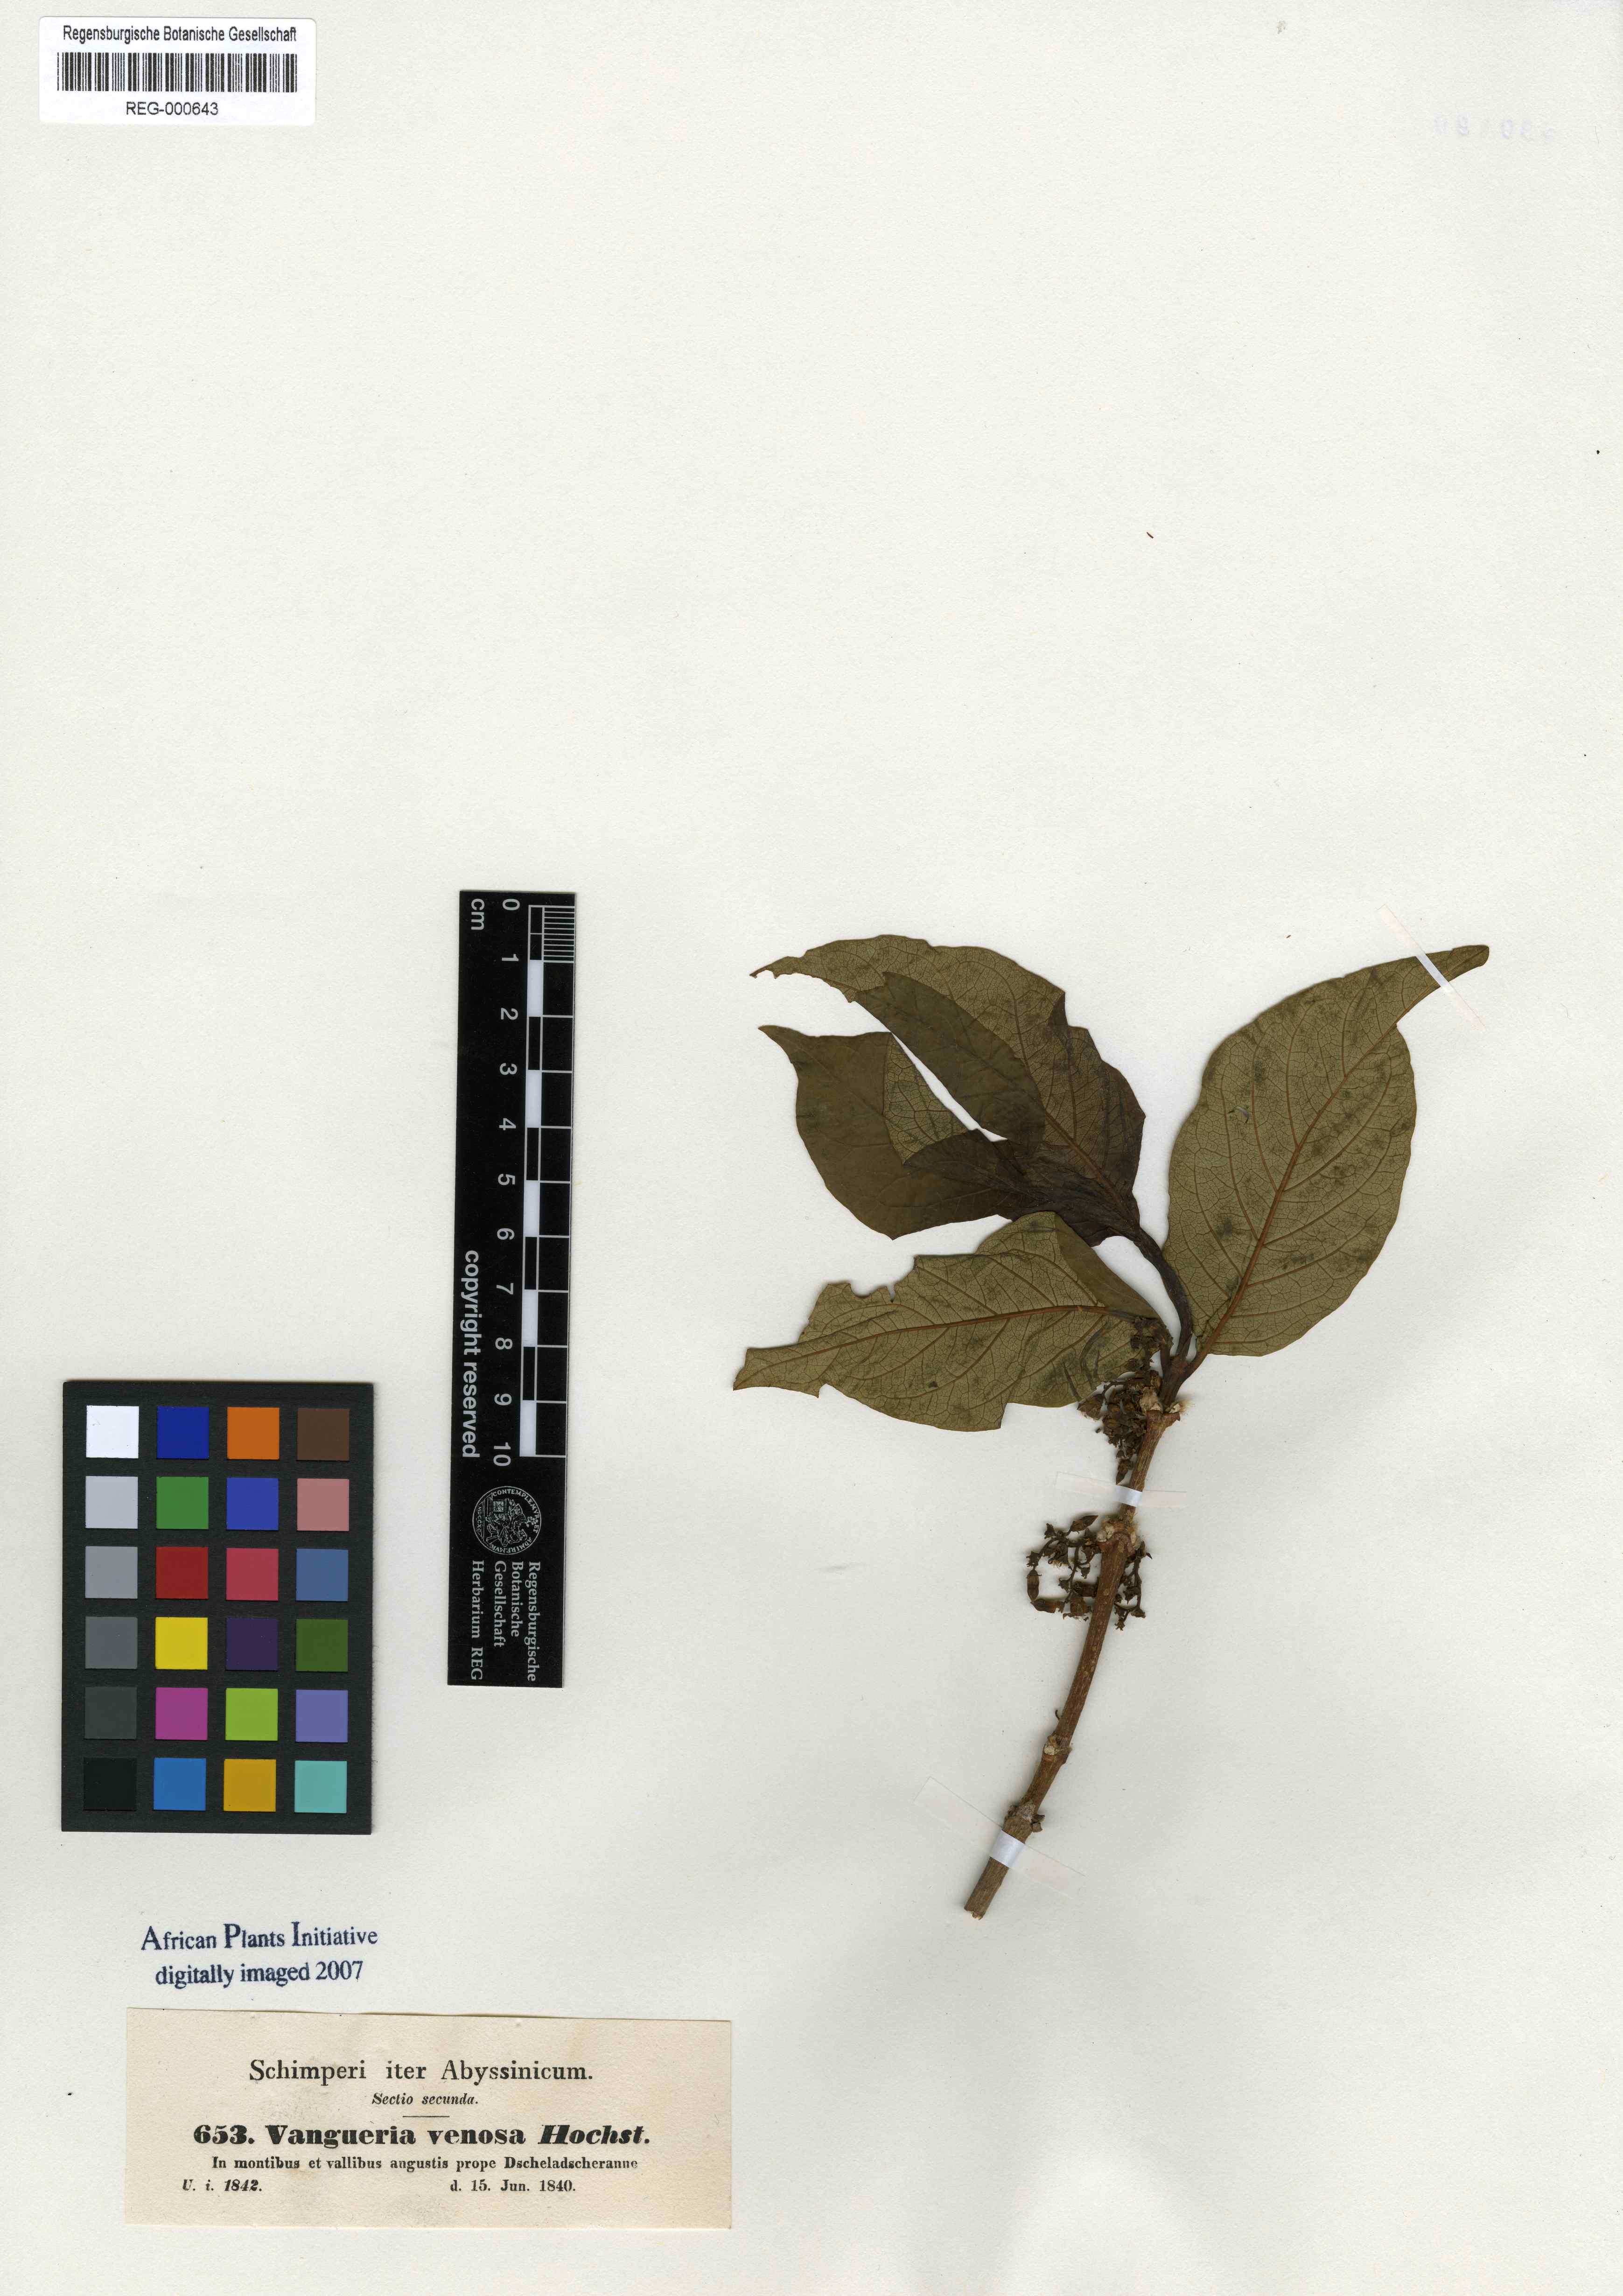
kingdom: Plantae
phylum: Tracheophyta
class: Magnoliopsida
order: Gentianales
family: Rubiaceae
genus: Vangueria
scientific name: Vangueria venosa
